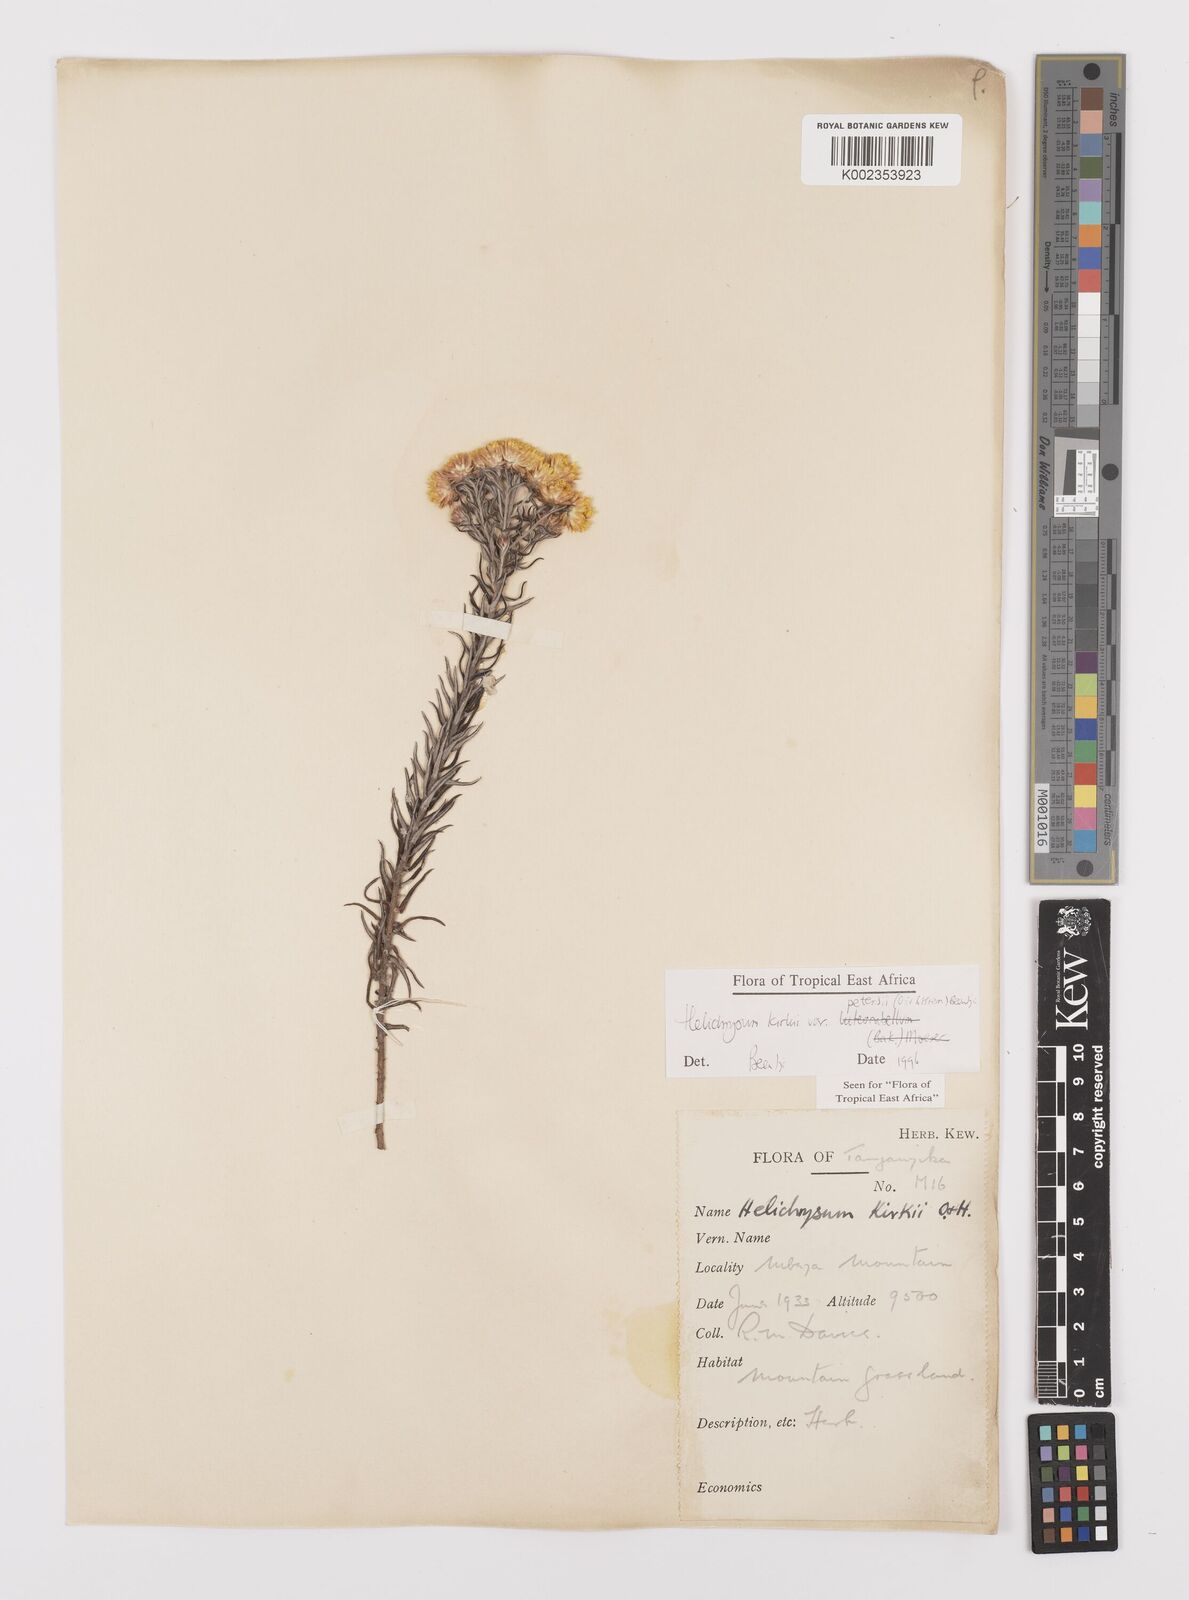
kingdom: Plantae
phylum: Tracheophyta
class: Magnoliopsida
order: Asterales
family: Asteraceae
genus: Helichrysum
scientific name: Helichrysum kirkii
